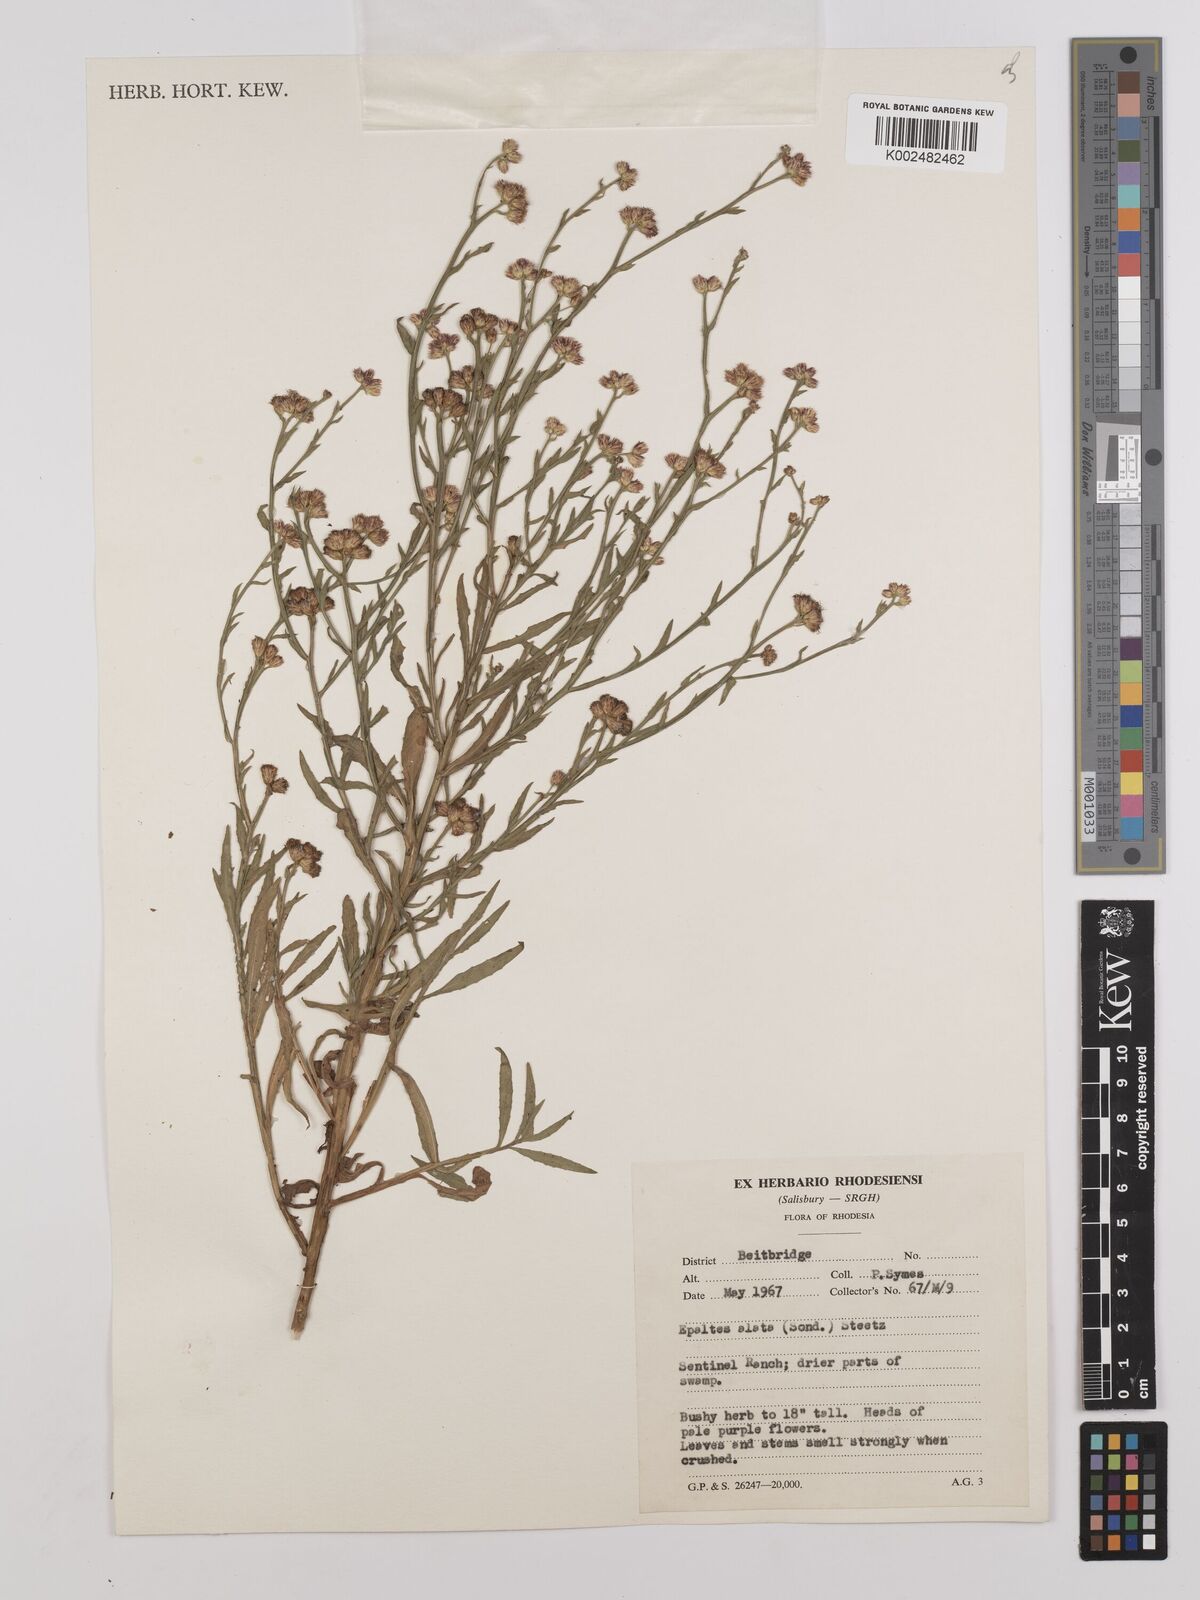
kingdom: Plantae
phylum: Tracheophyta
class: Magnoliopsida
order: Asterales
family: Asteraceae
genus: Litogyne
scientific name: Litogyne gariepina
